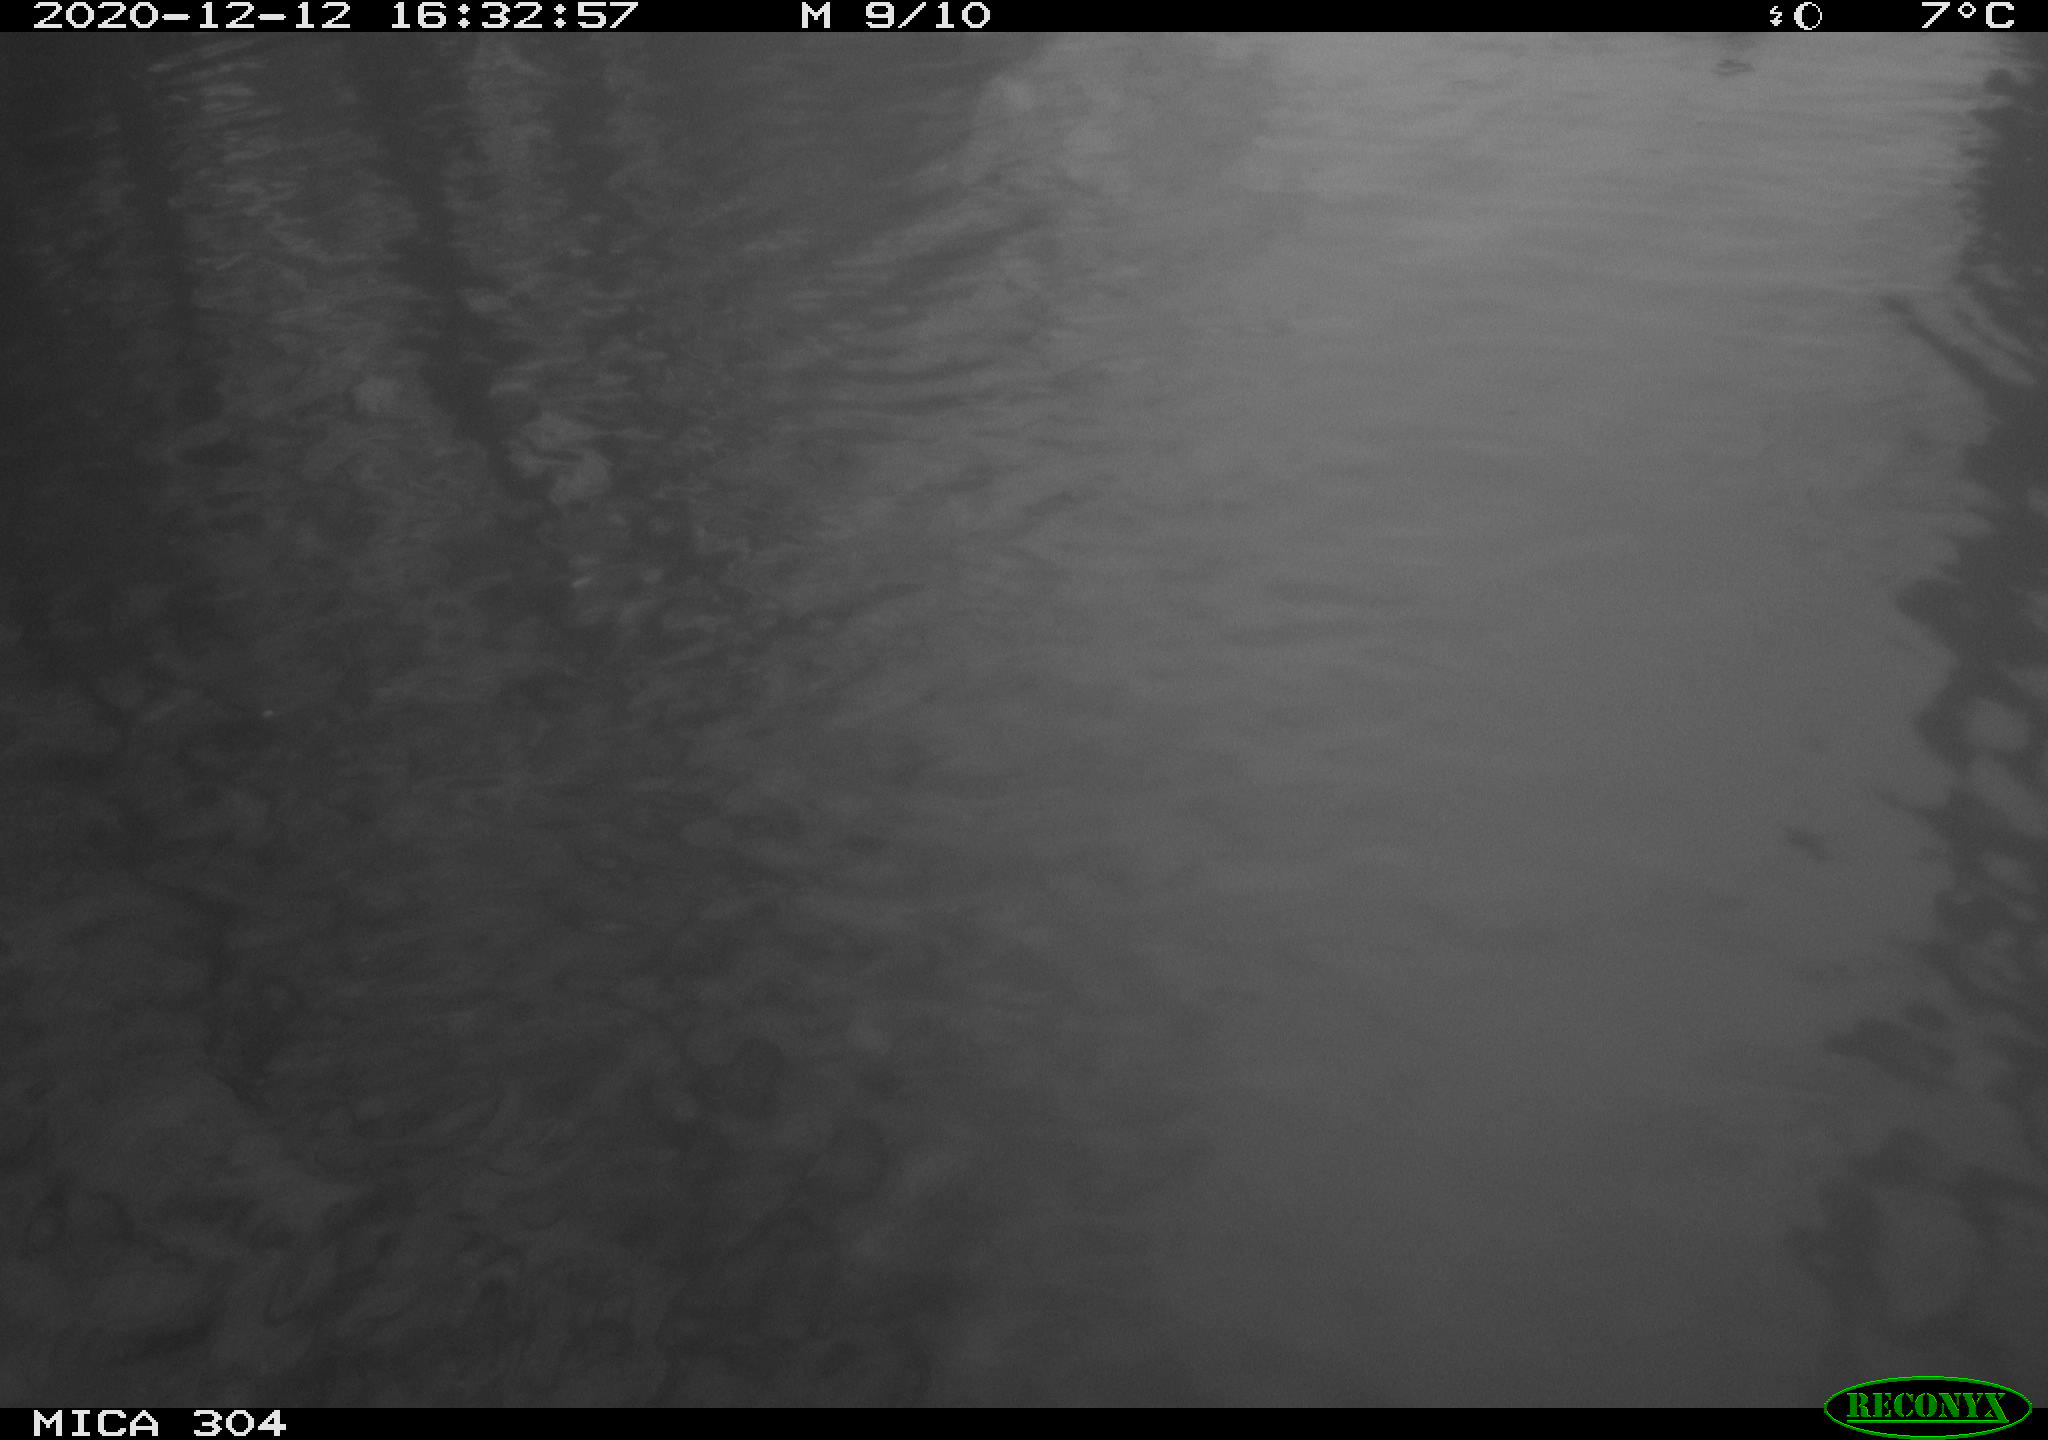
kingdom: Animalia
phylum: Chordata
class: Aves
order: Gruiformes
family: Rallidae
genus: Fulica
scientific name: Fulica atra
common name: Eurasian coot
